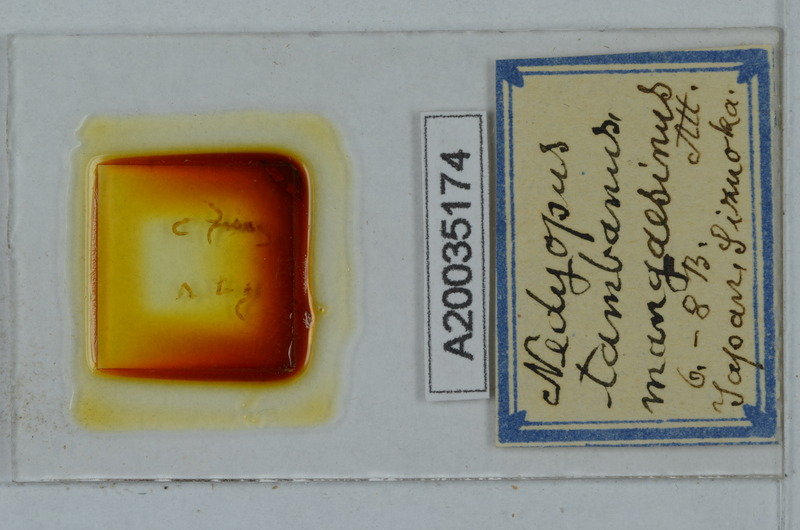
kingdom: Animalia
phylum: Arthropoda
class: Diplopoda
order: Polydesmida
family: Paradoxosomatidae
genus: Nedyopus
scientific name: Nedyopus tambanus
